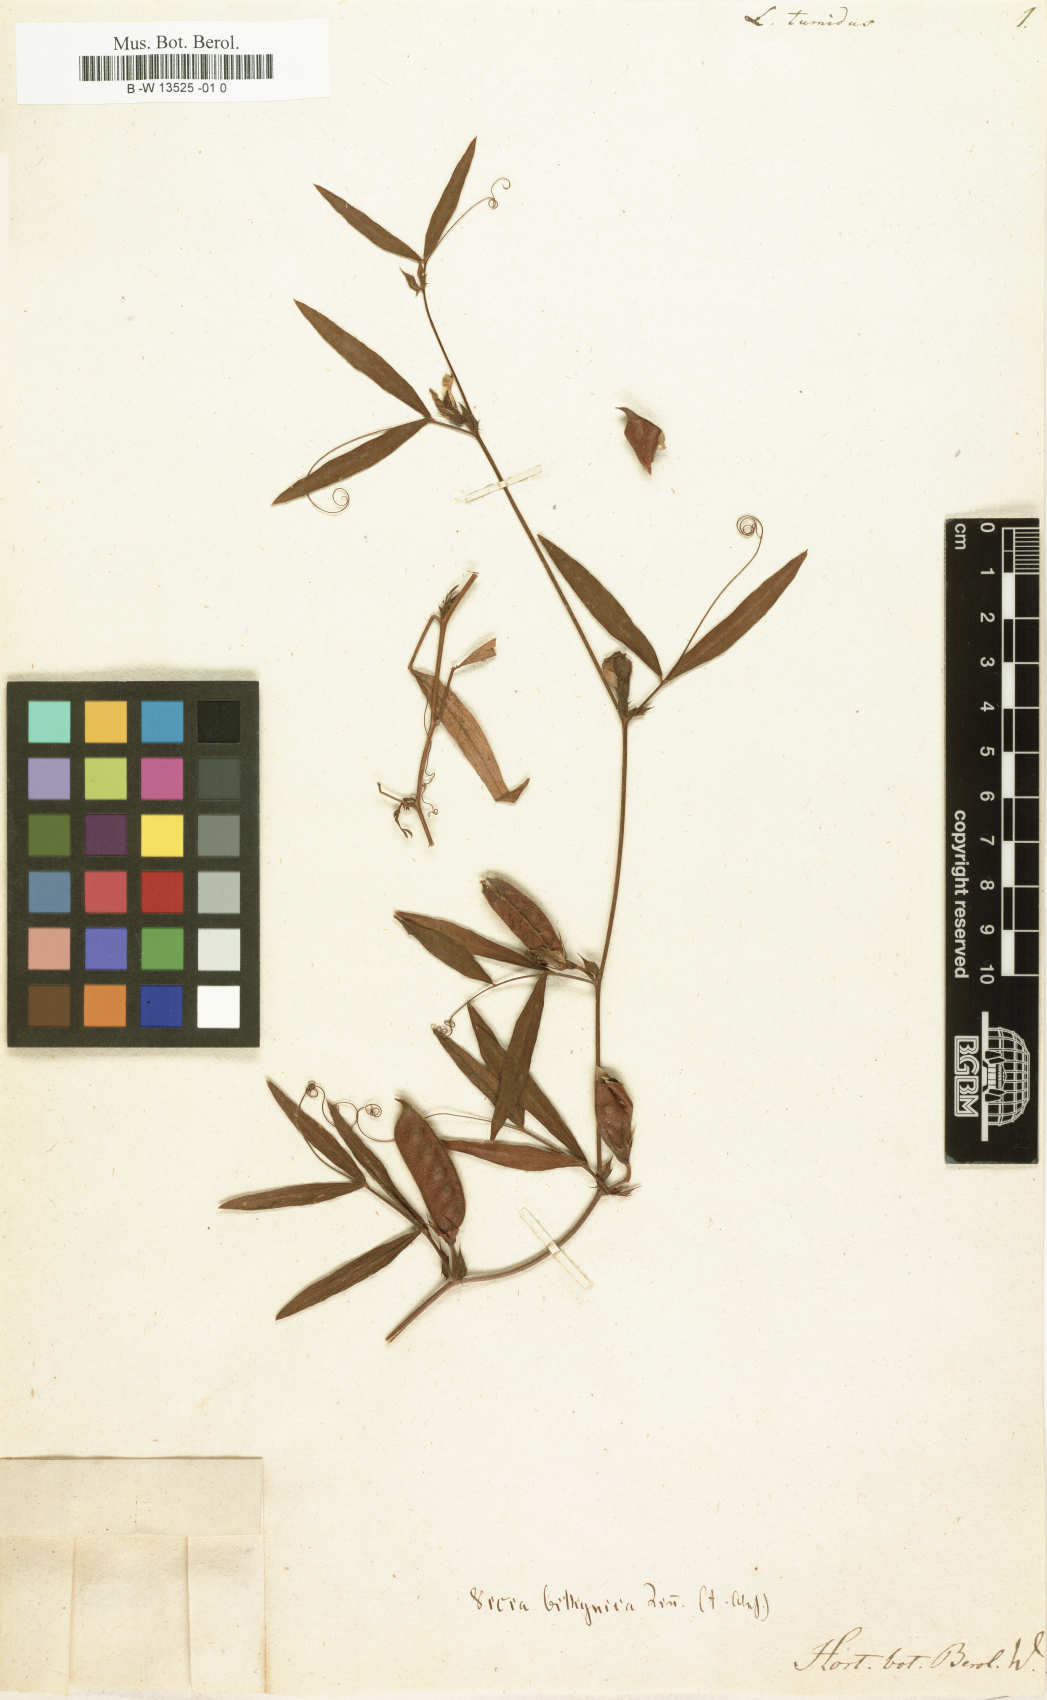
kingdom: Plantae
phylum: Tracheophyta
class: Magnoliopsida
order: Fabales
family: Fabaceae
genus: Vicia
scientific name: Vicia bithynica
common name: Bithynian vetch
